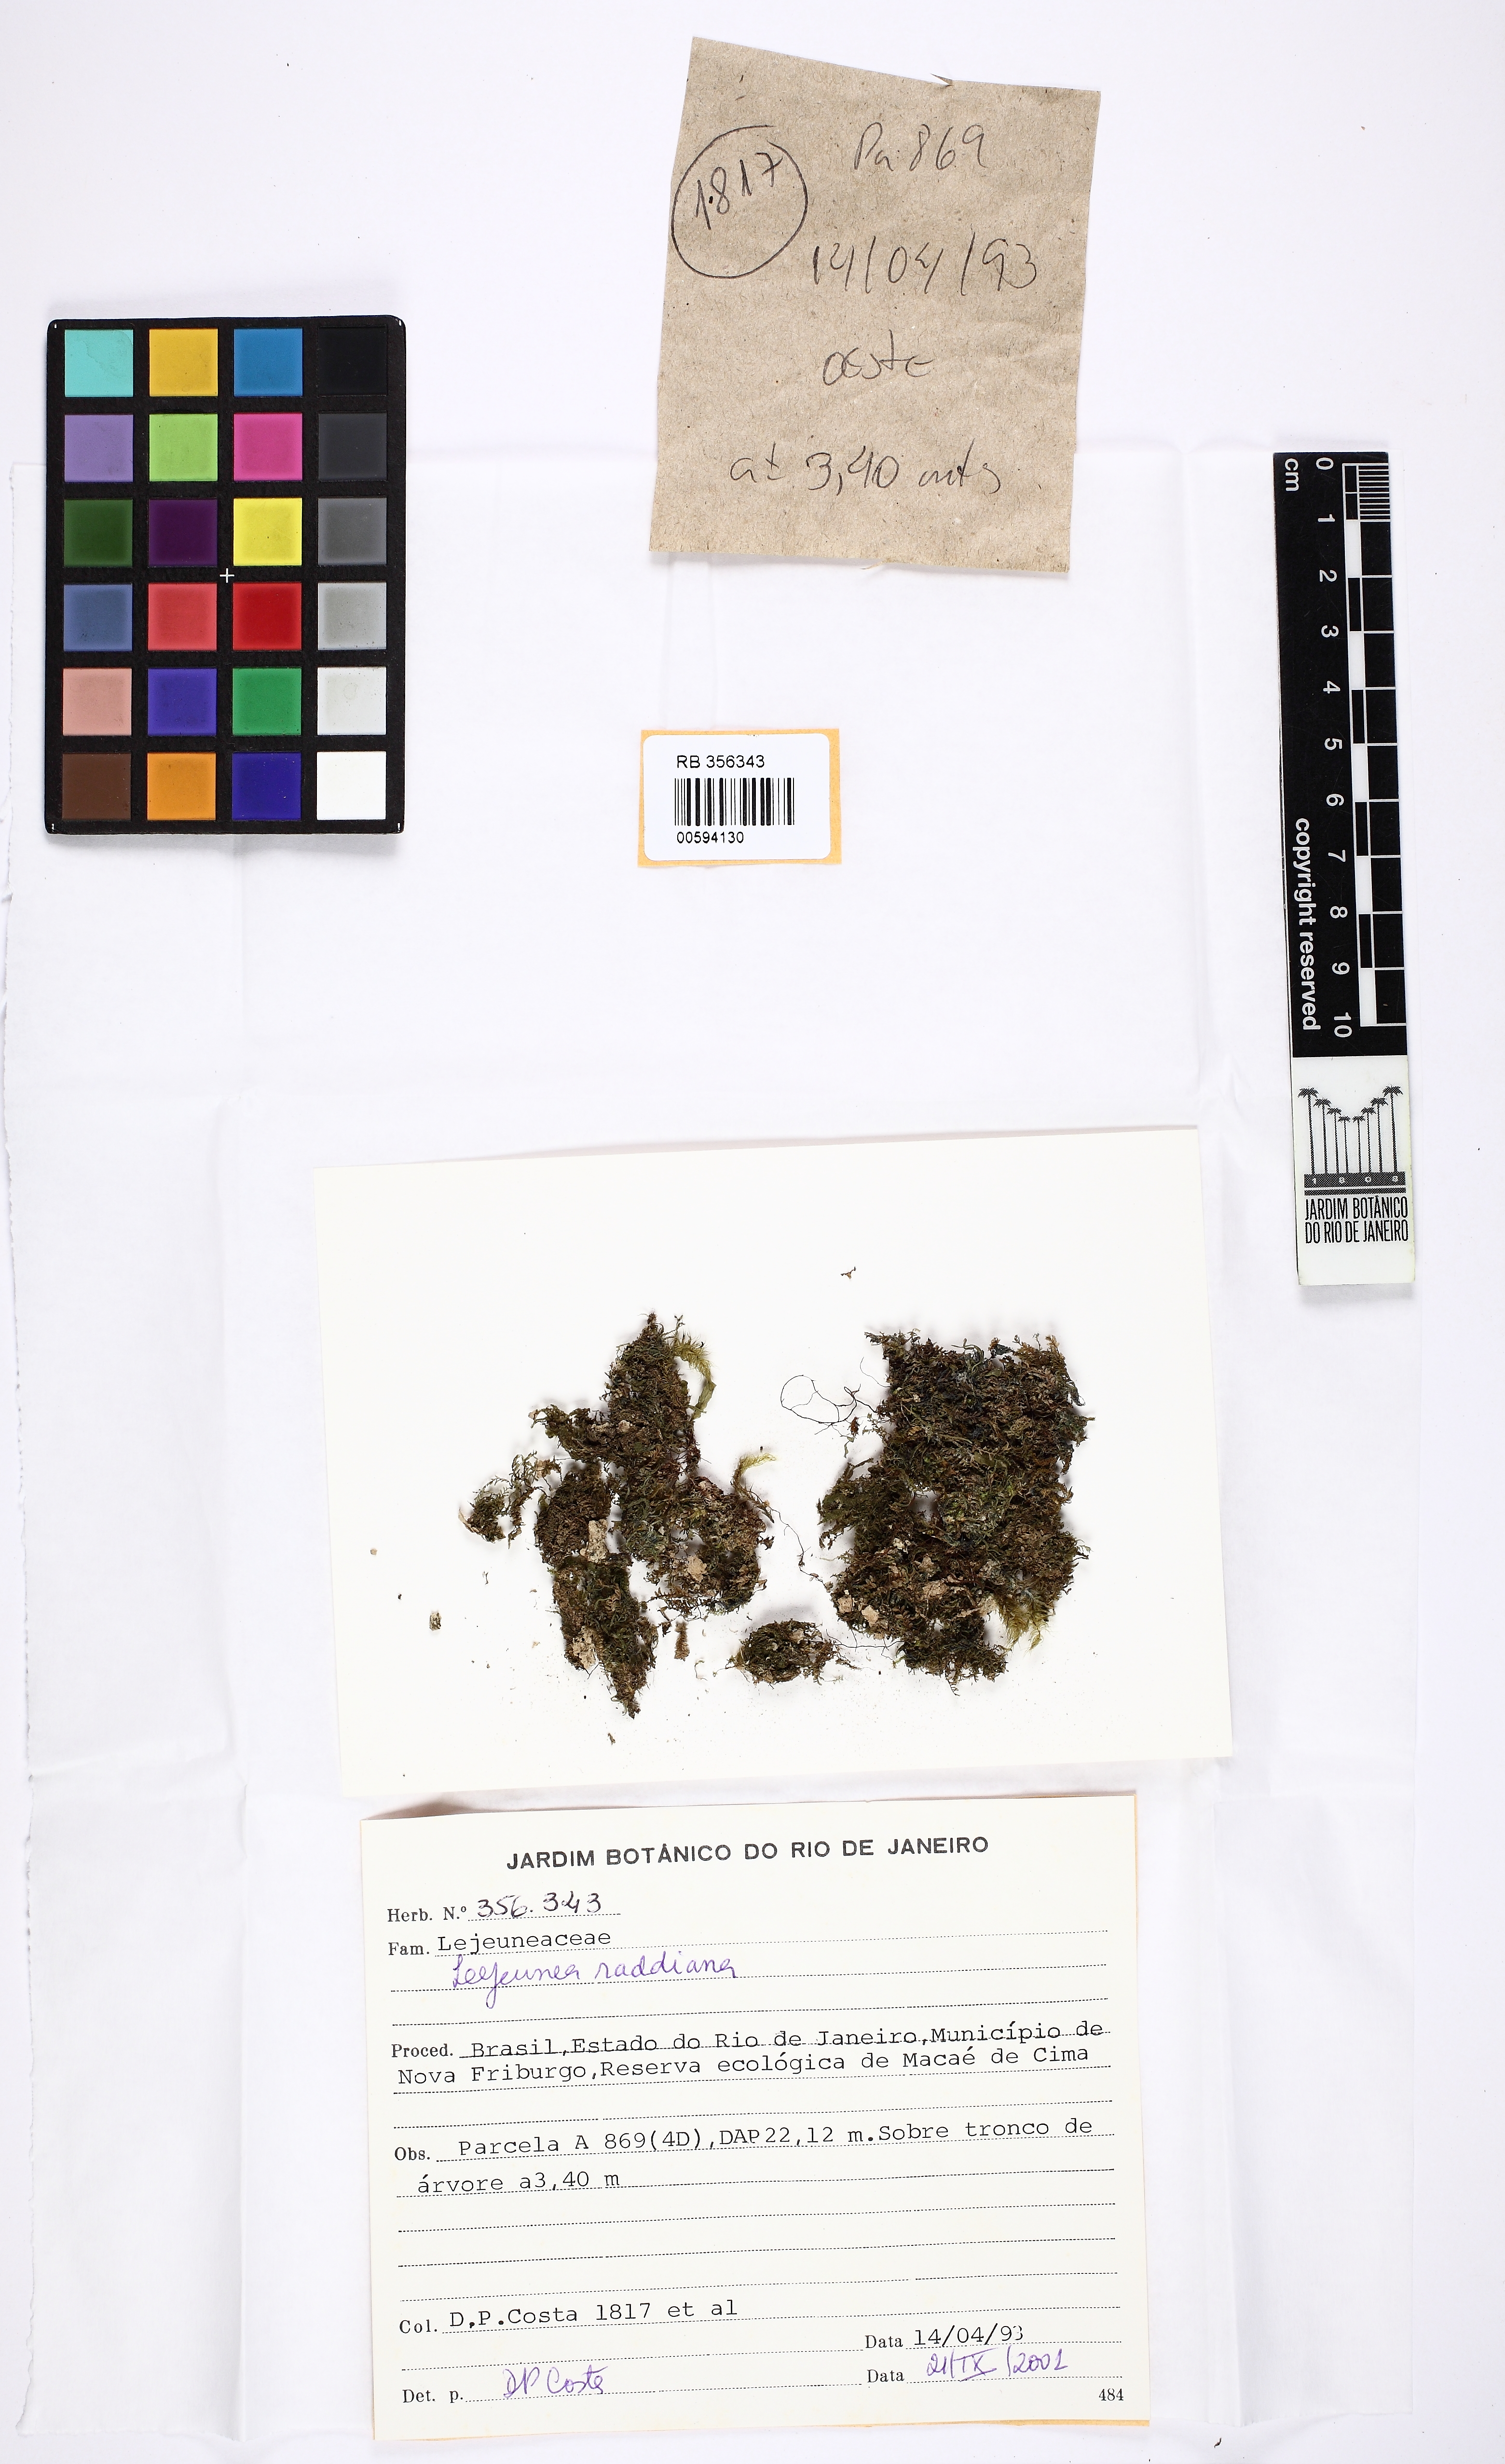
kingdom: Plantae
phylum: Marchantiophyta
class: Jungermanniopsida
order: Porellales
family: Lejeuneaceae
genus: Lejeunea
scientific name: Lejeunea raddiana
